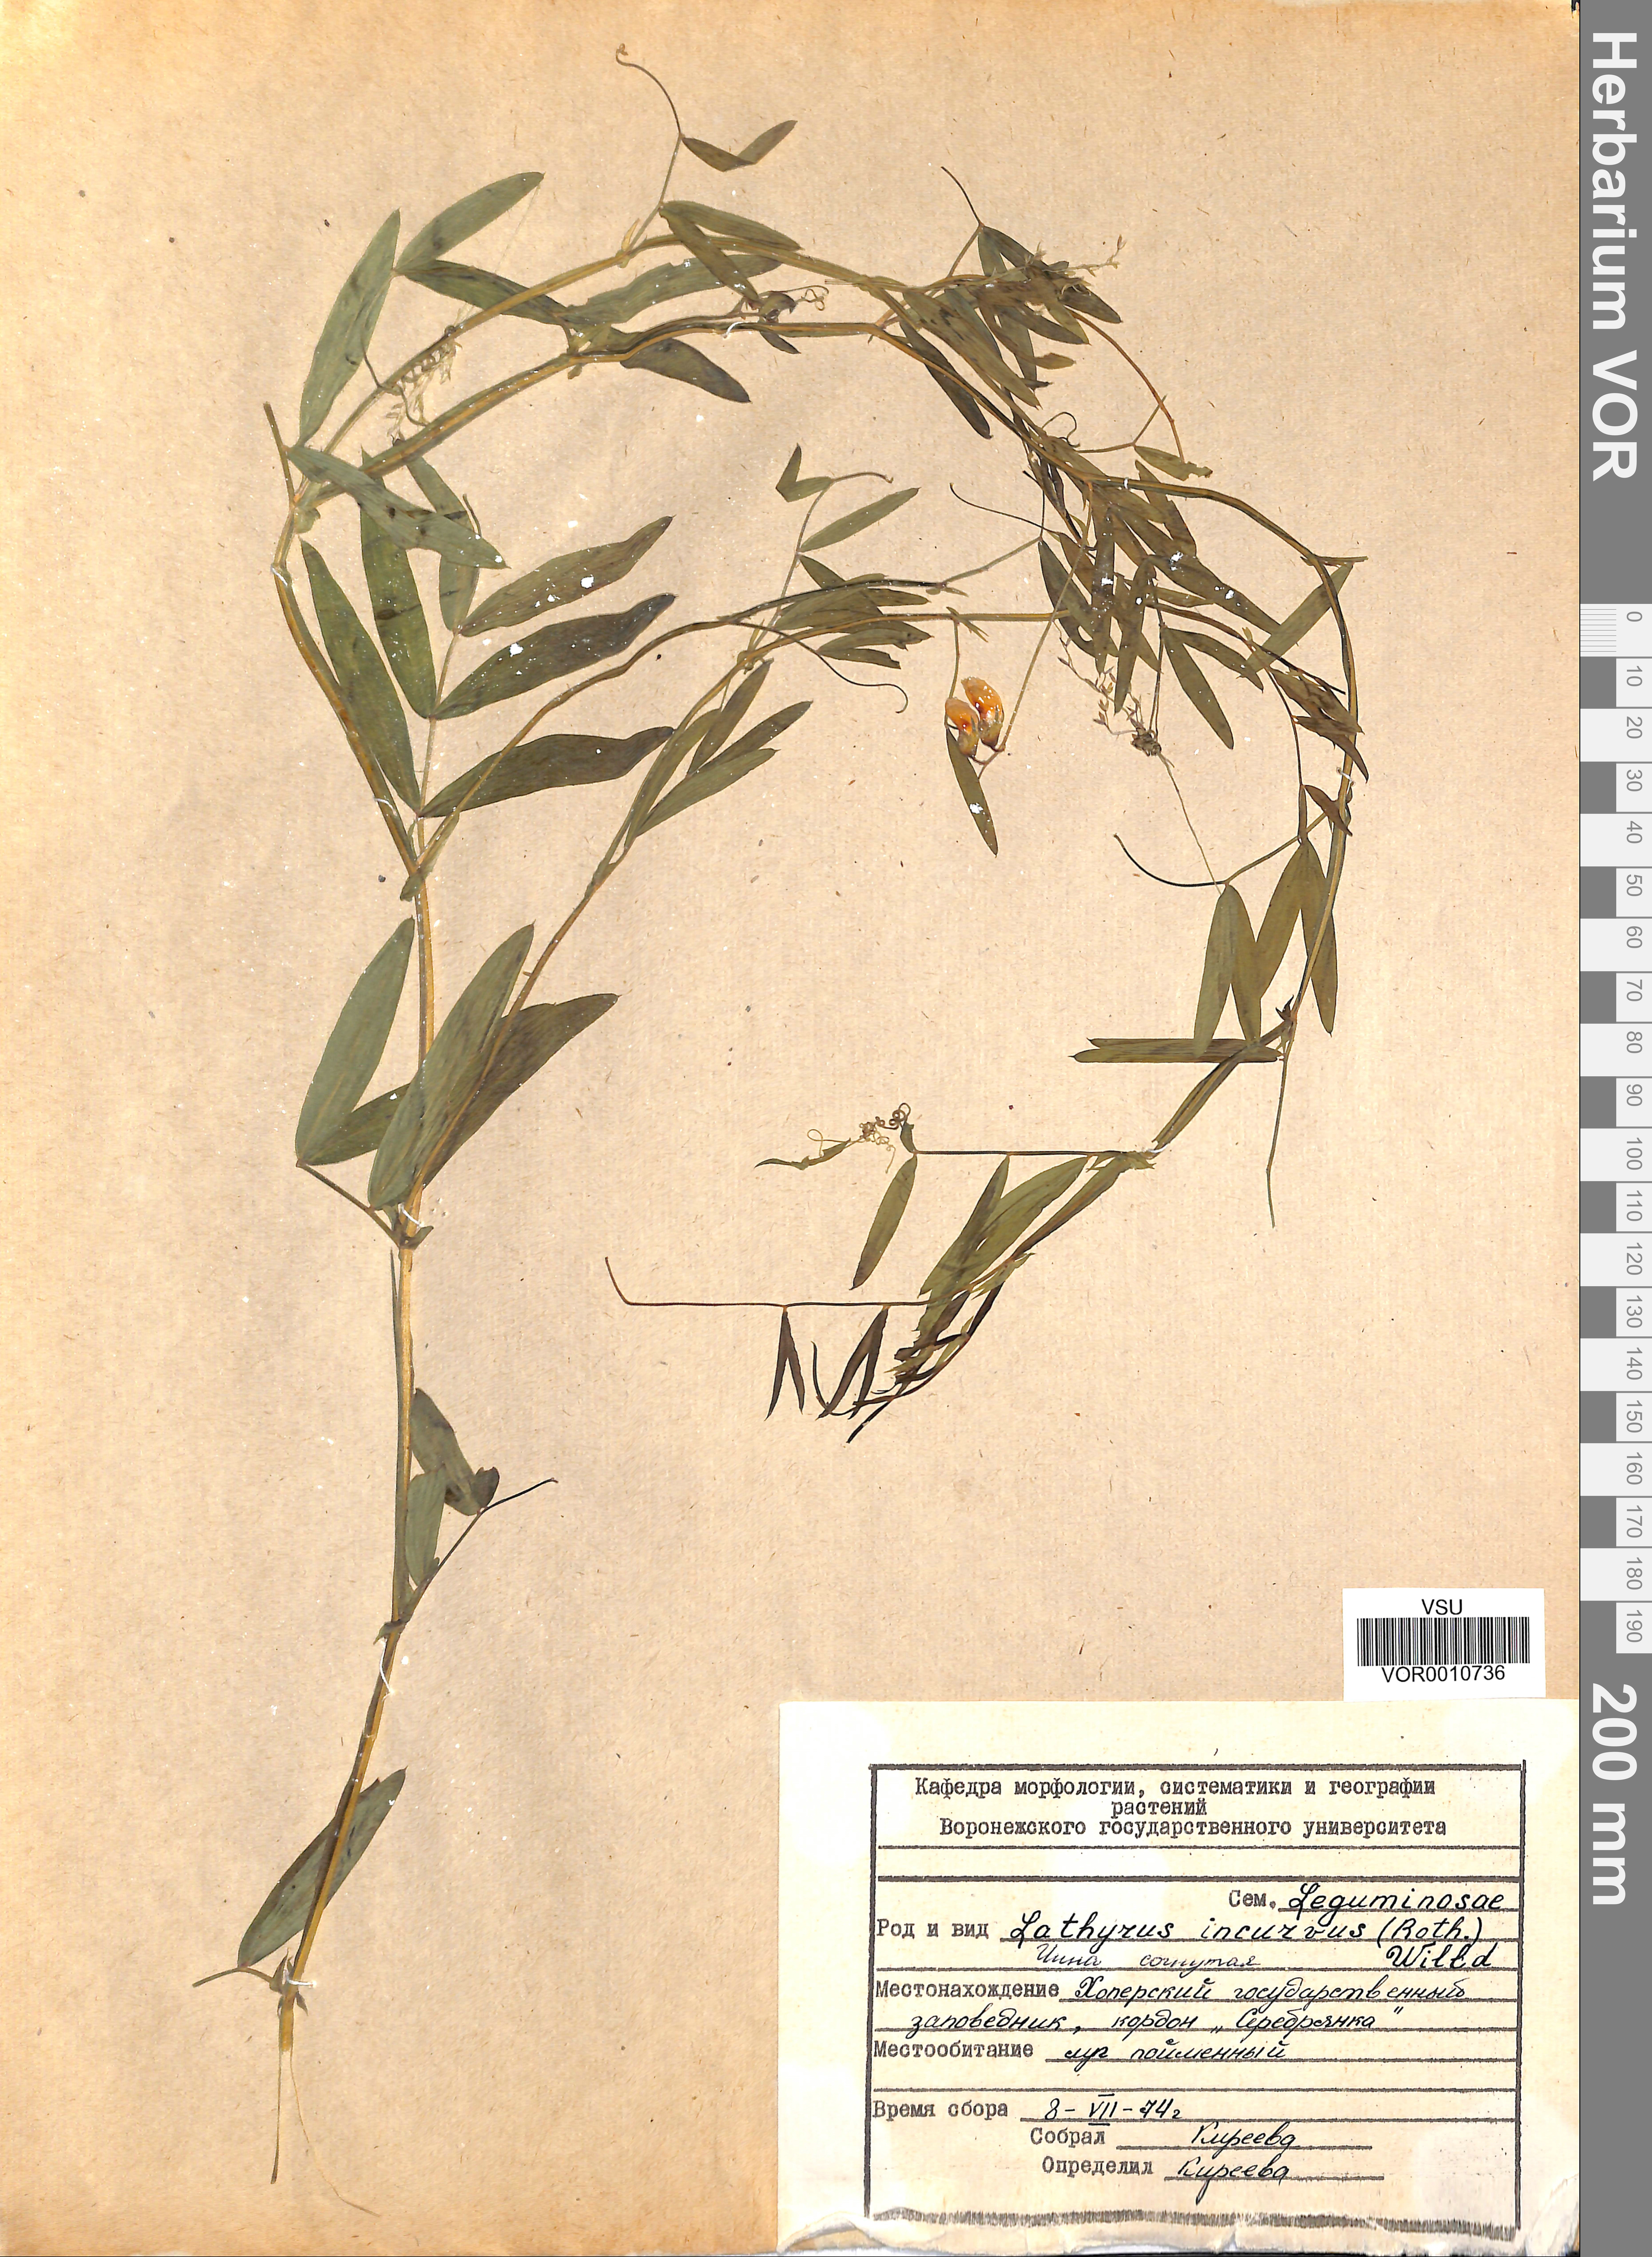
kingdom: Plantae
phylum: Tracheophyta
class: Magnoliopsida
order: Fabales
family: Fabaceae
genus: Lathyrus
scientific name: Lathyrus incurvus
